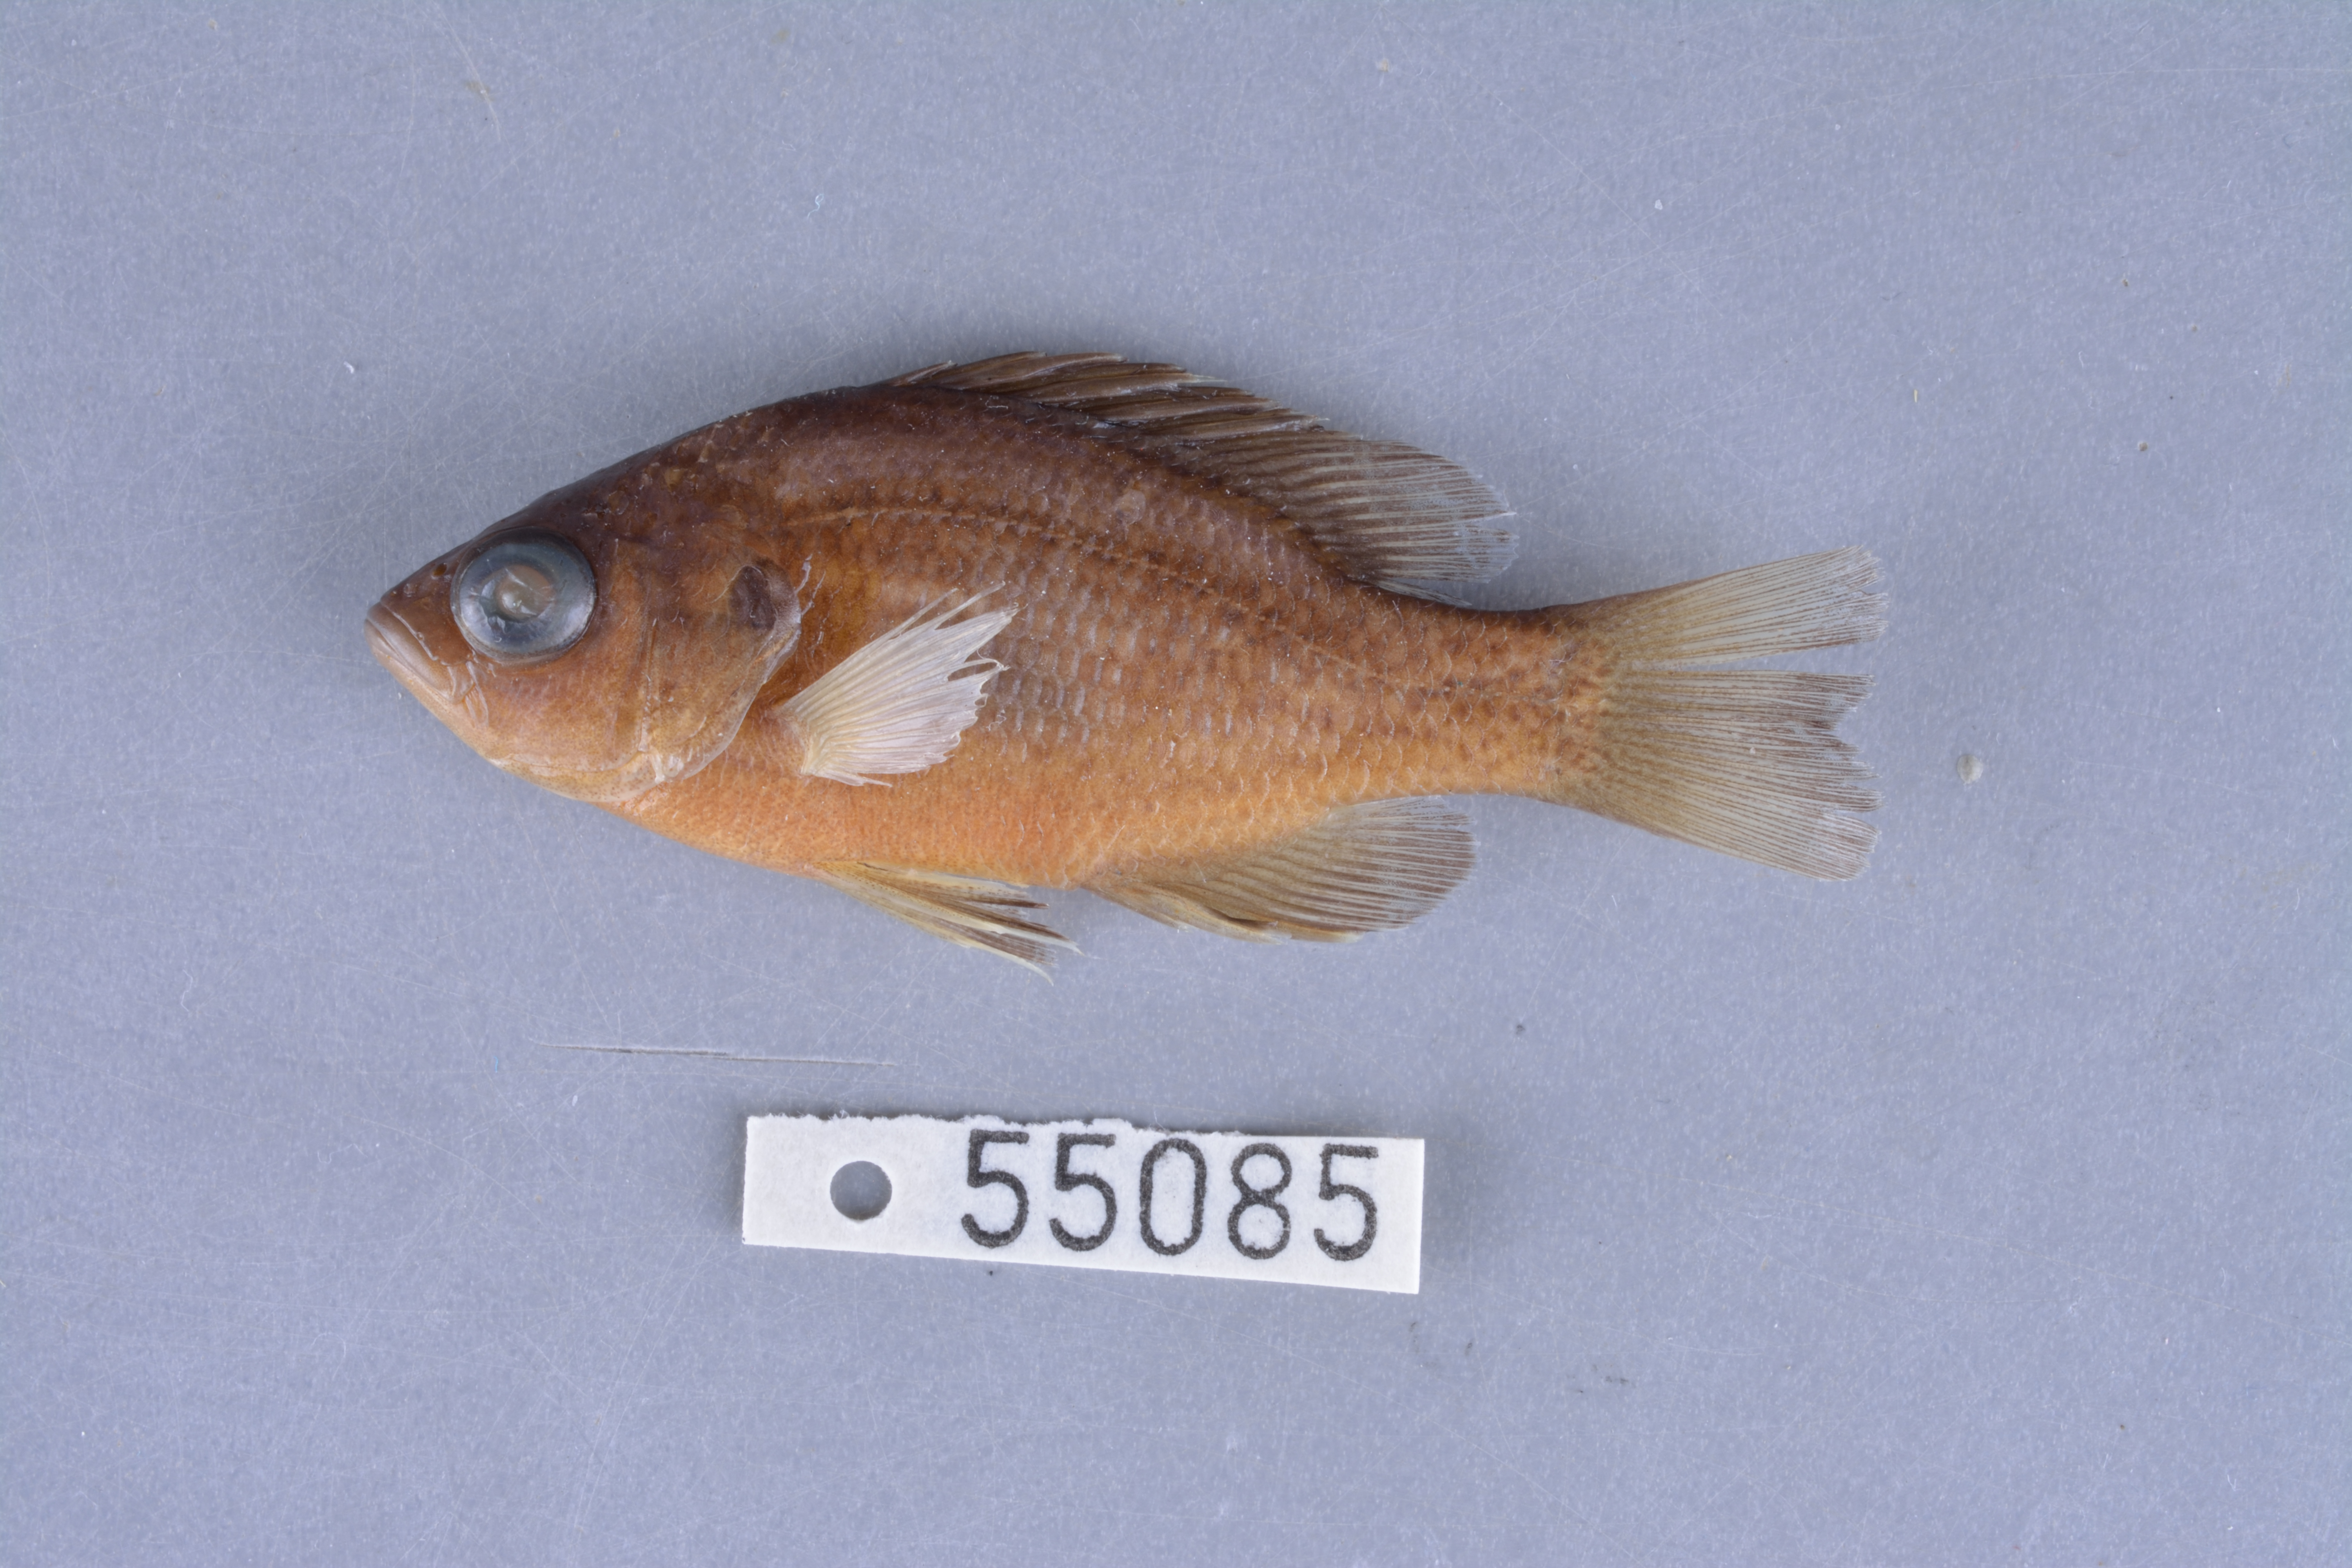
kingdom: Animalia
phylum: Chordata
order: Perciformes
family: Centrarchidae
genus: Lepomis
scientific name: Lepomis miniatus
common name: Redspotted sunfish
